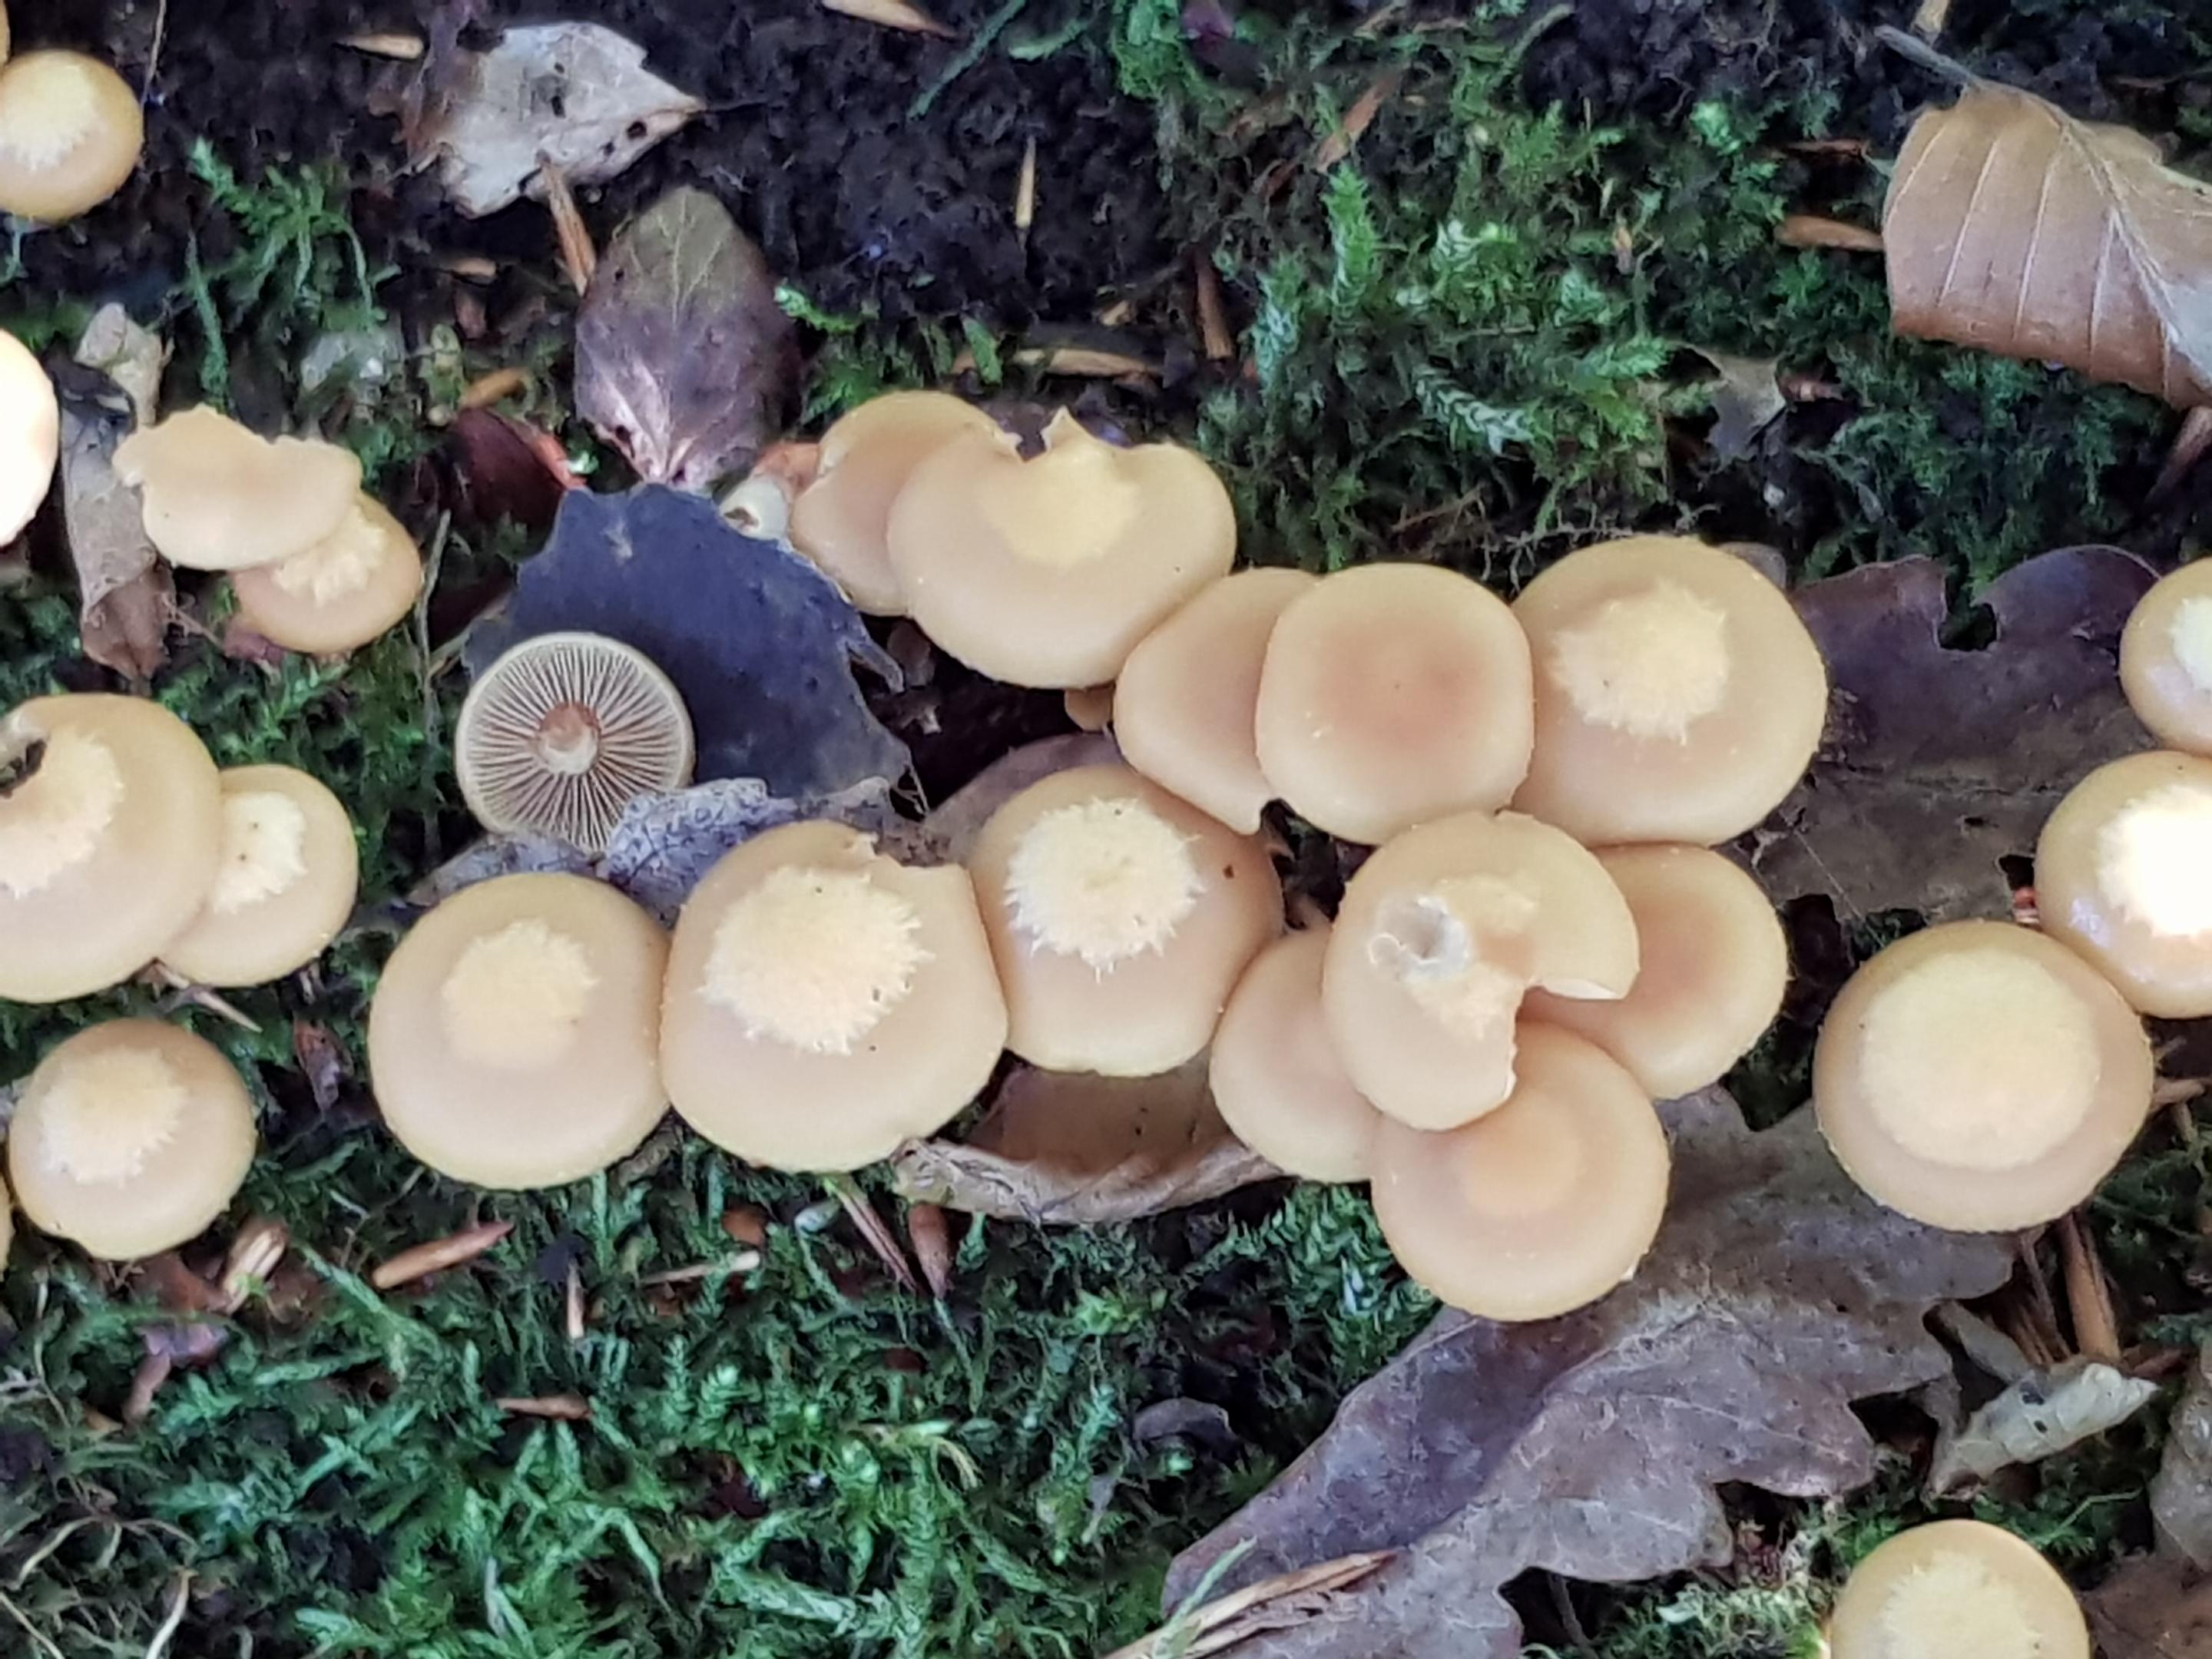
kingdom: Fungi
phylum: Basidiomycota
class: Agaricomycetes
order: Agaricales
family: Strophariaceae
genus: Kuehneromyces
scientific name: Kuehneromyces mutabilis
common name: foranderlig skælhat
